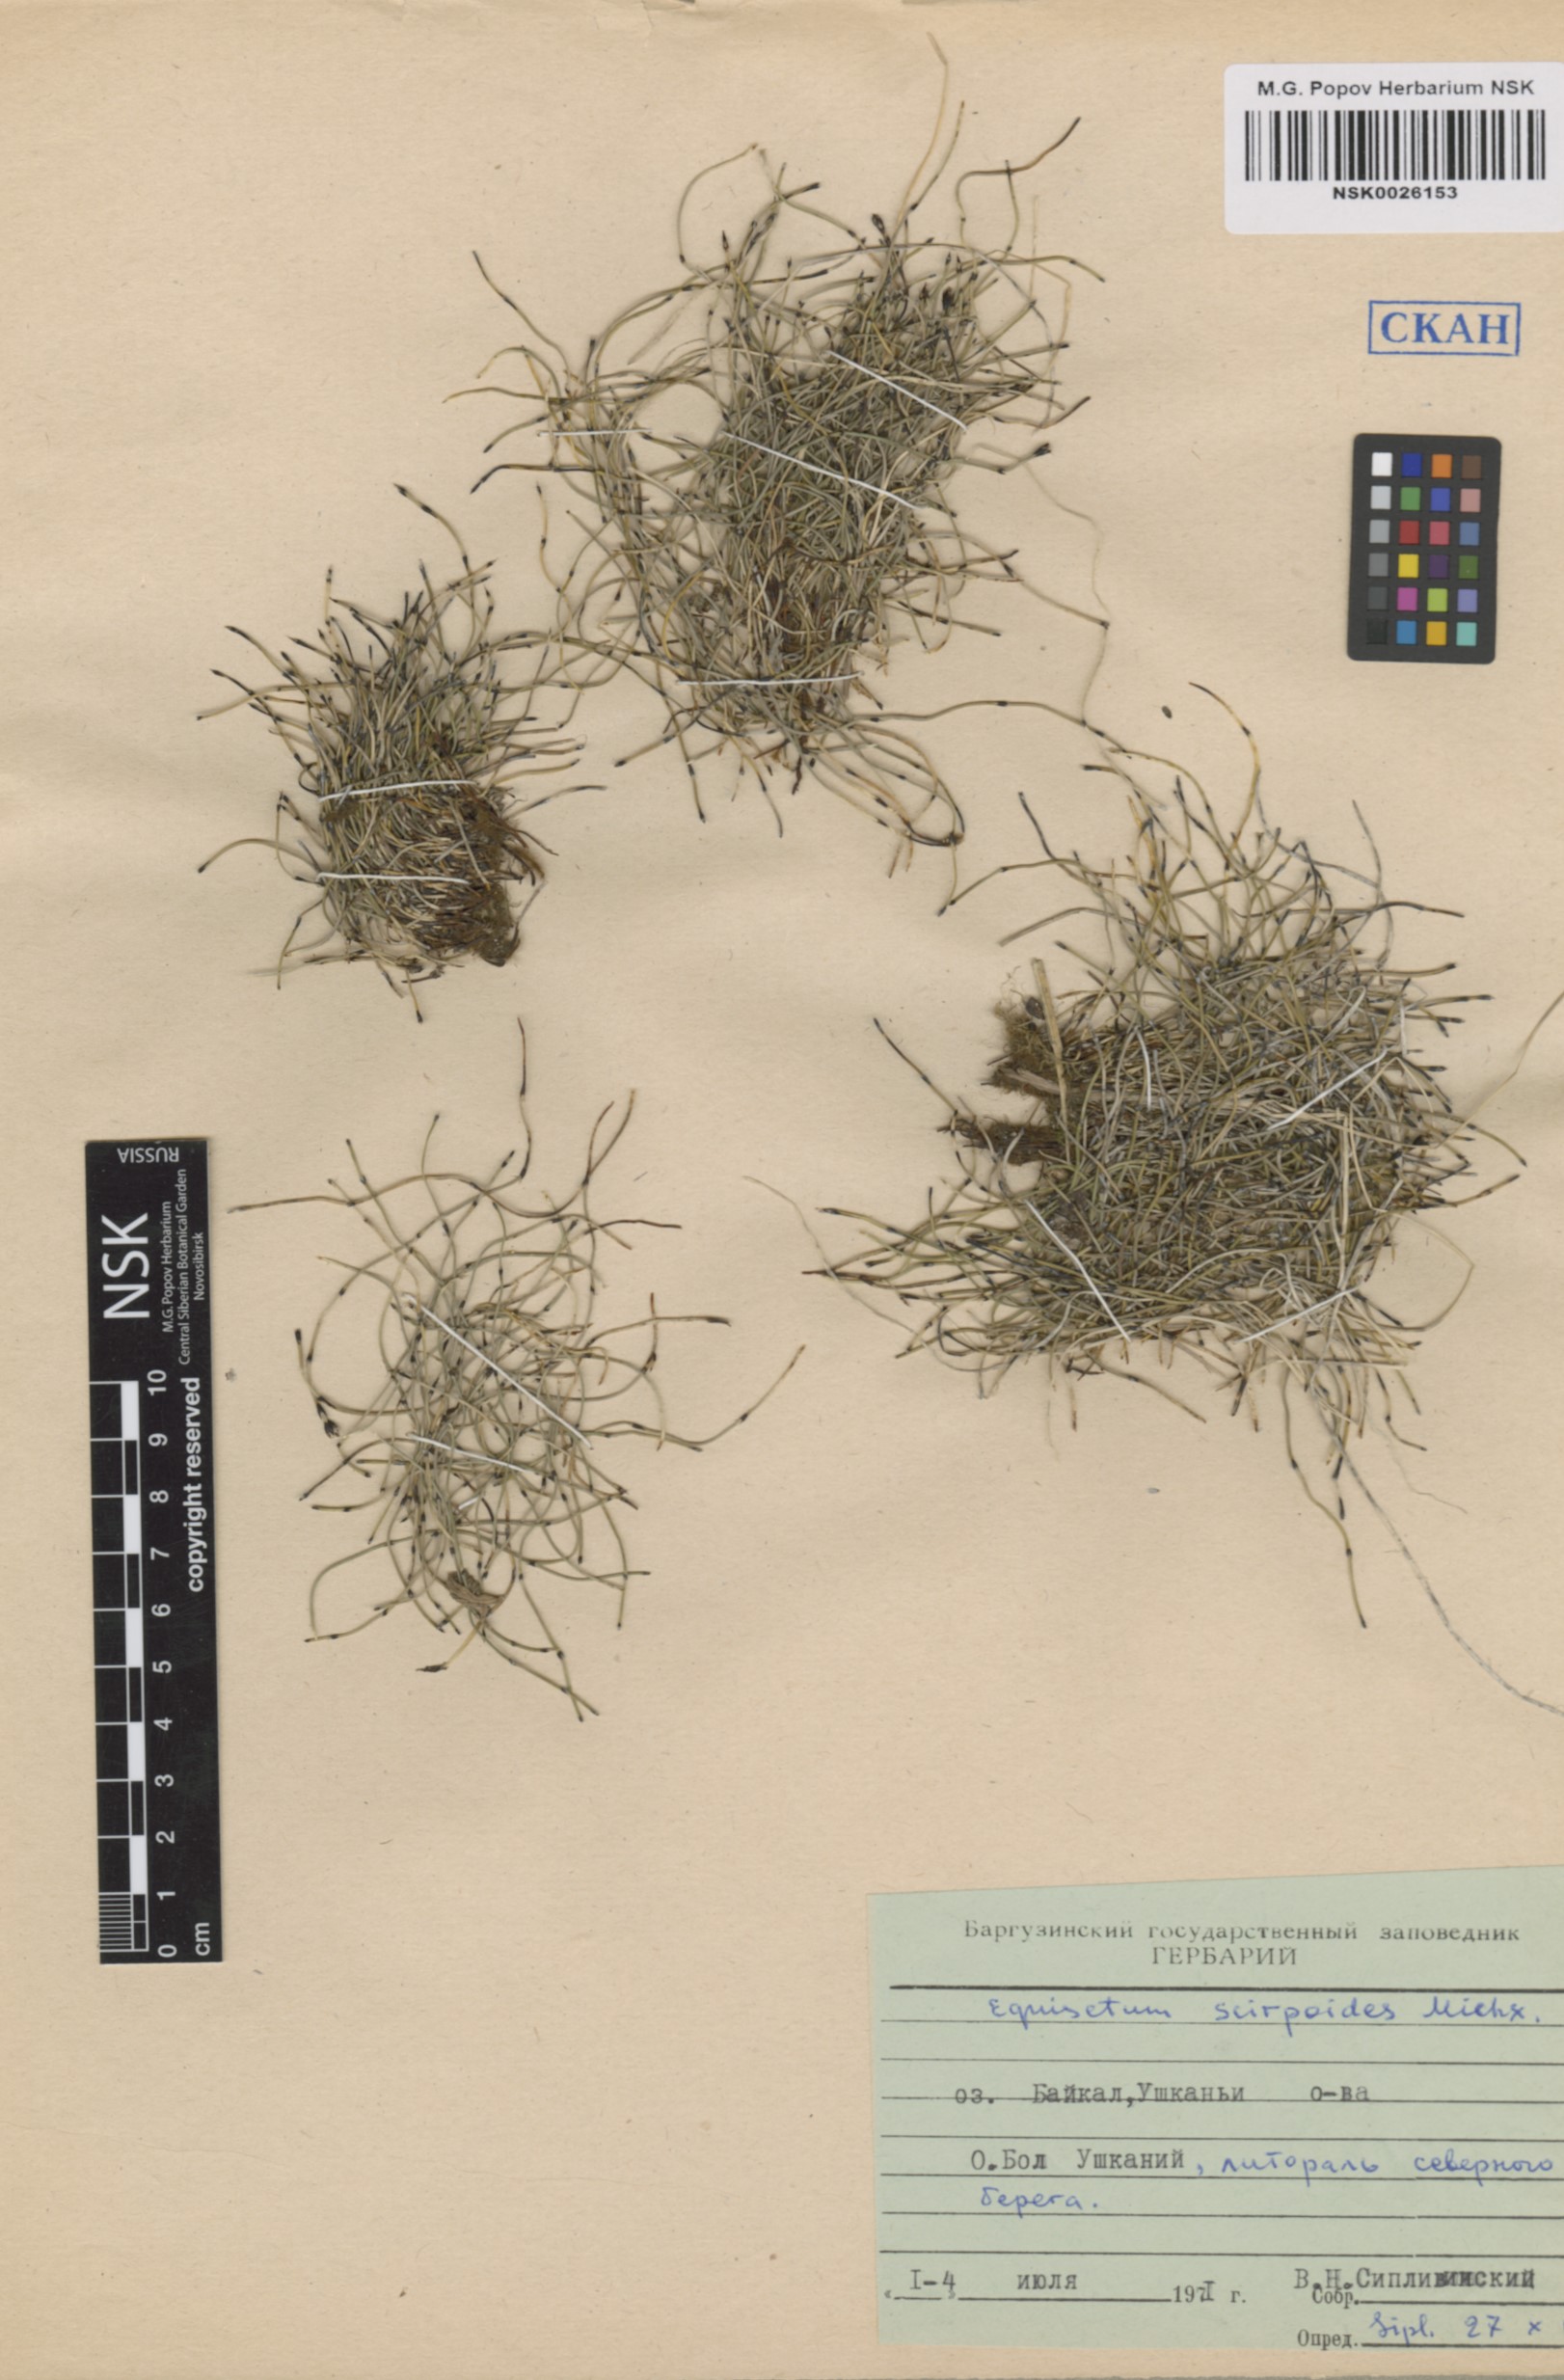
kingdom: Plantae
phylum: Tracheophyta
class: Polypodiopsida
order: Equisetales
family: Equisetaceae
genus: Equisetum
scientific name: Equisetum scirpoides
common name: Delicate horsetail
